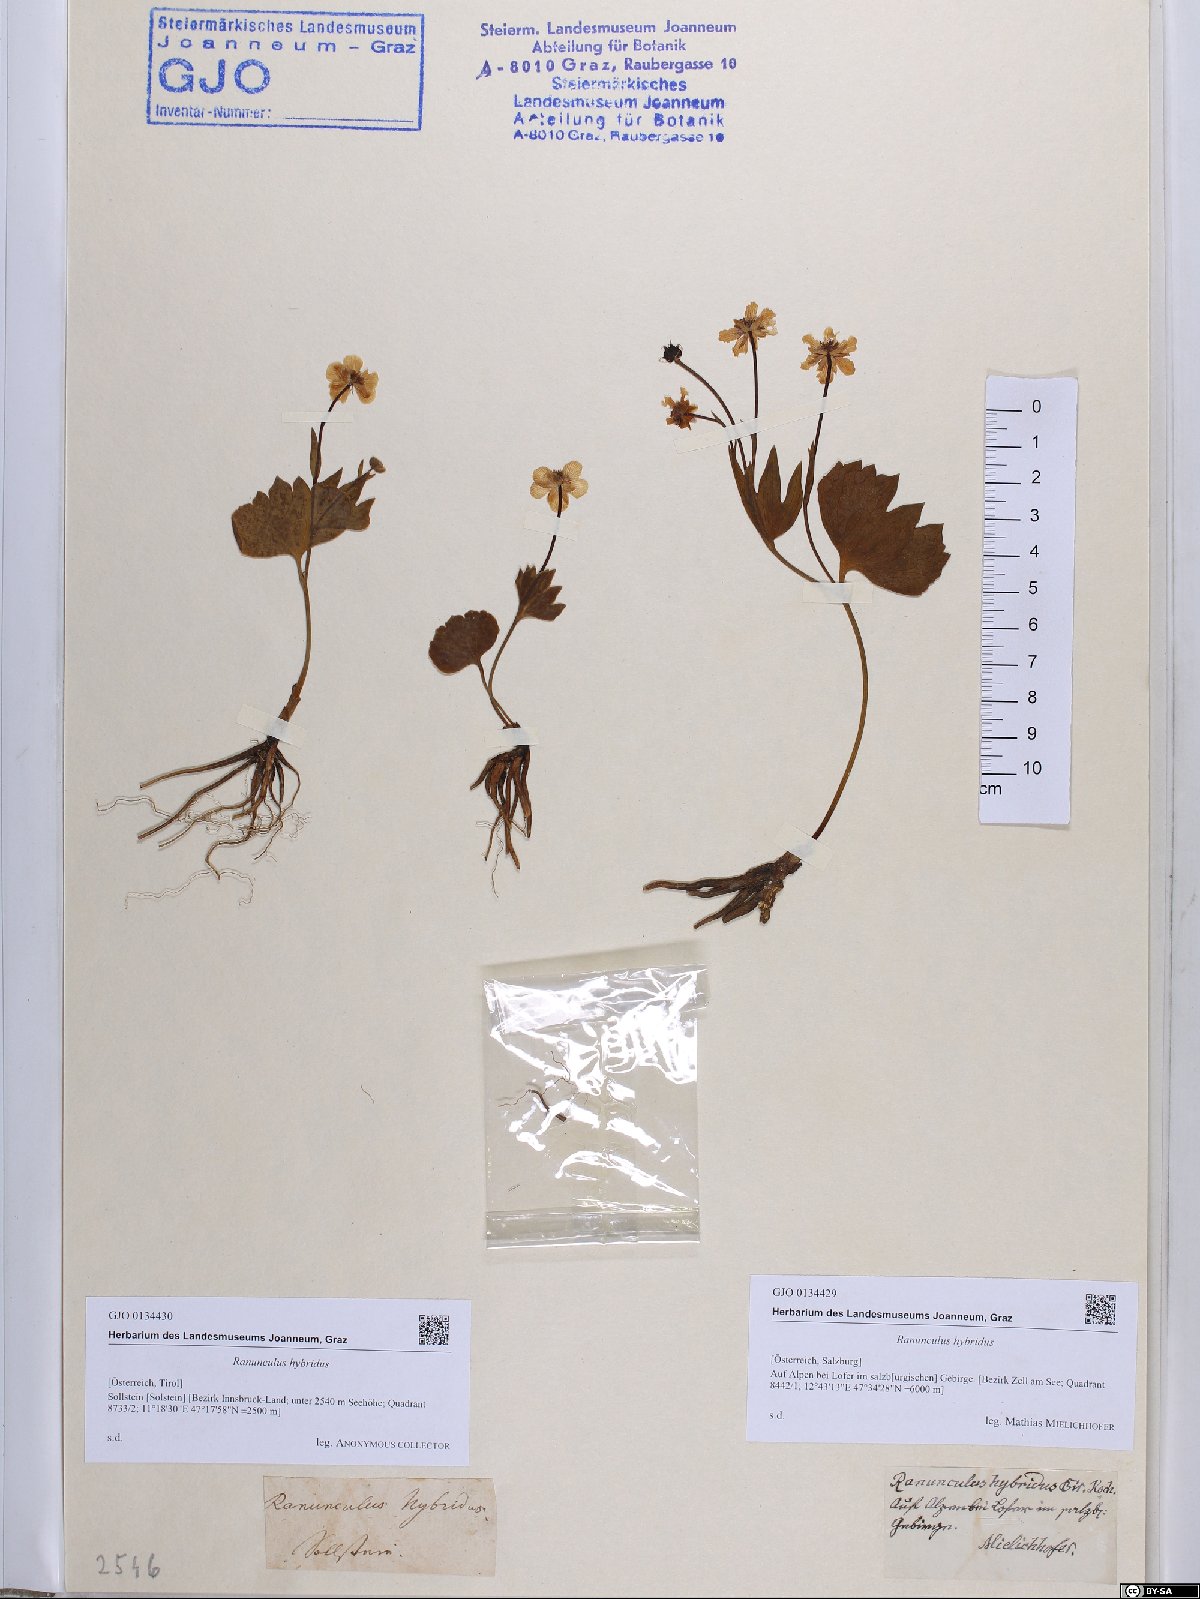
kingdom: Plantae
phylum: Tracheophyta
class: Magnoliopsida
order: Ranunculales
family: Ranunculaceae
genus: Ranunculus
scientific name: Ranunculus hybridus
